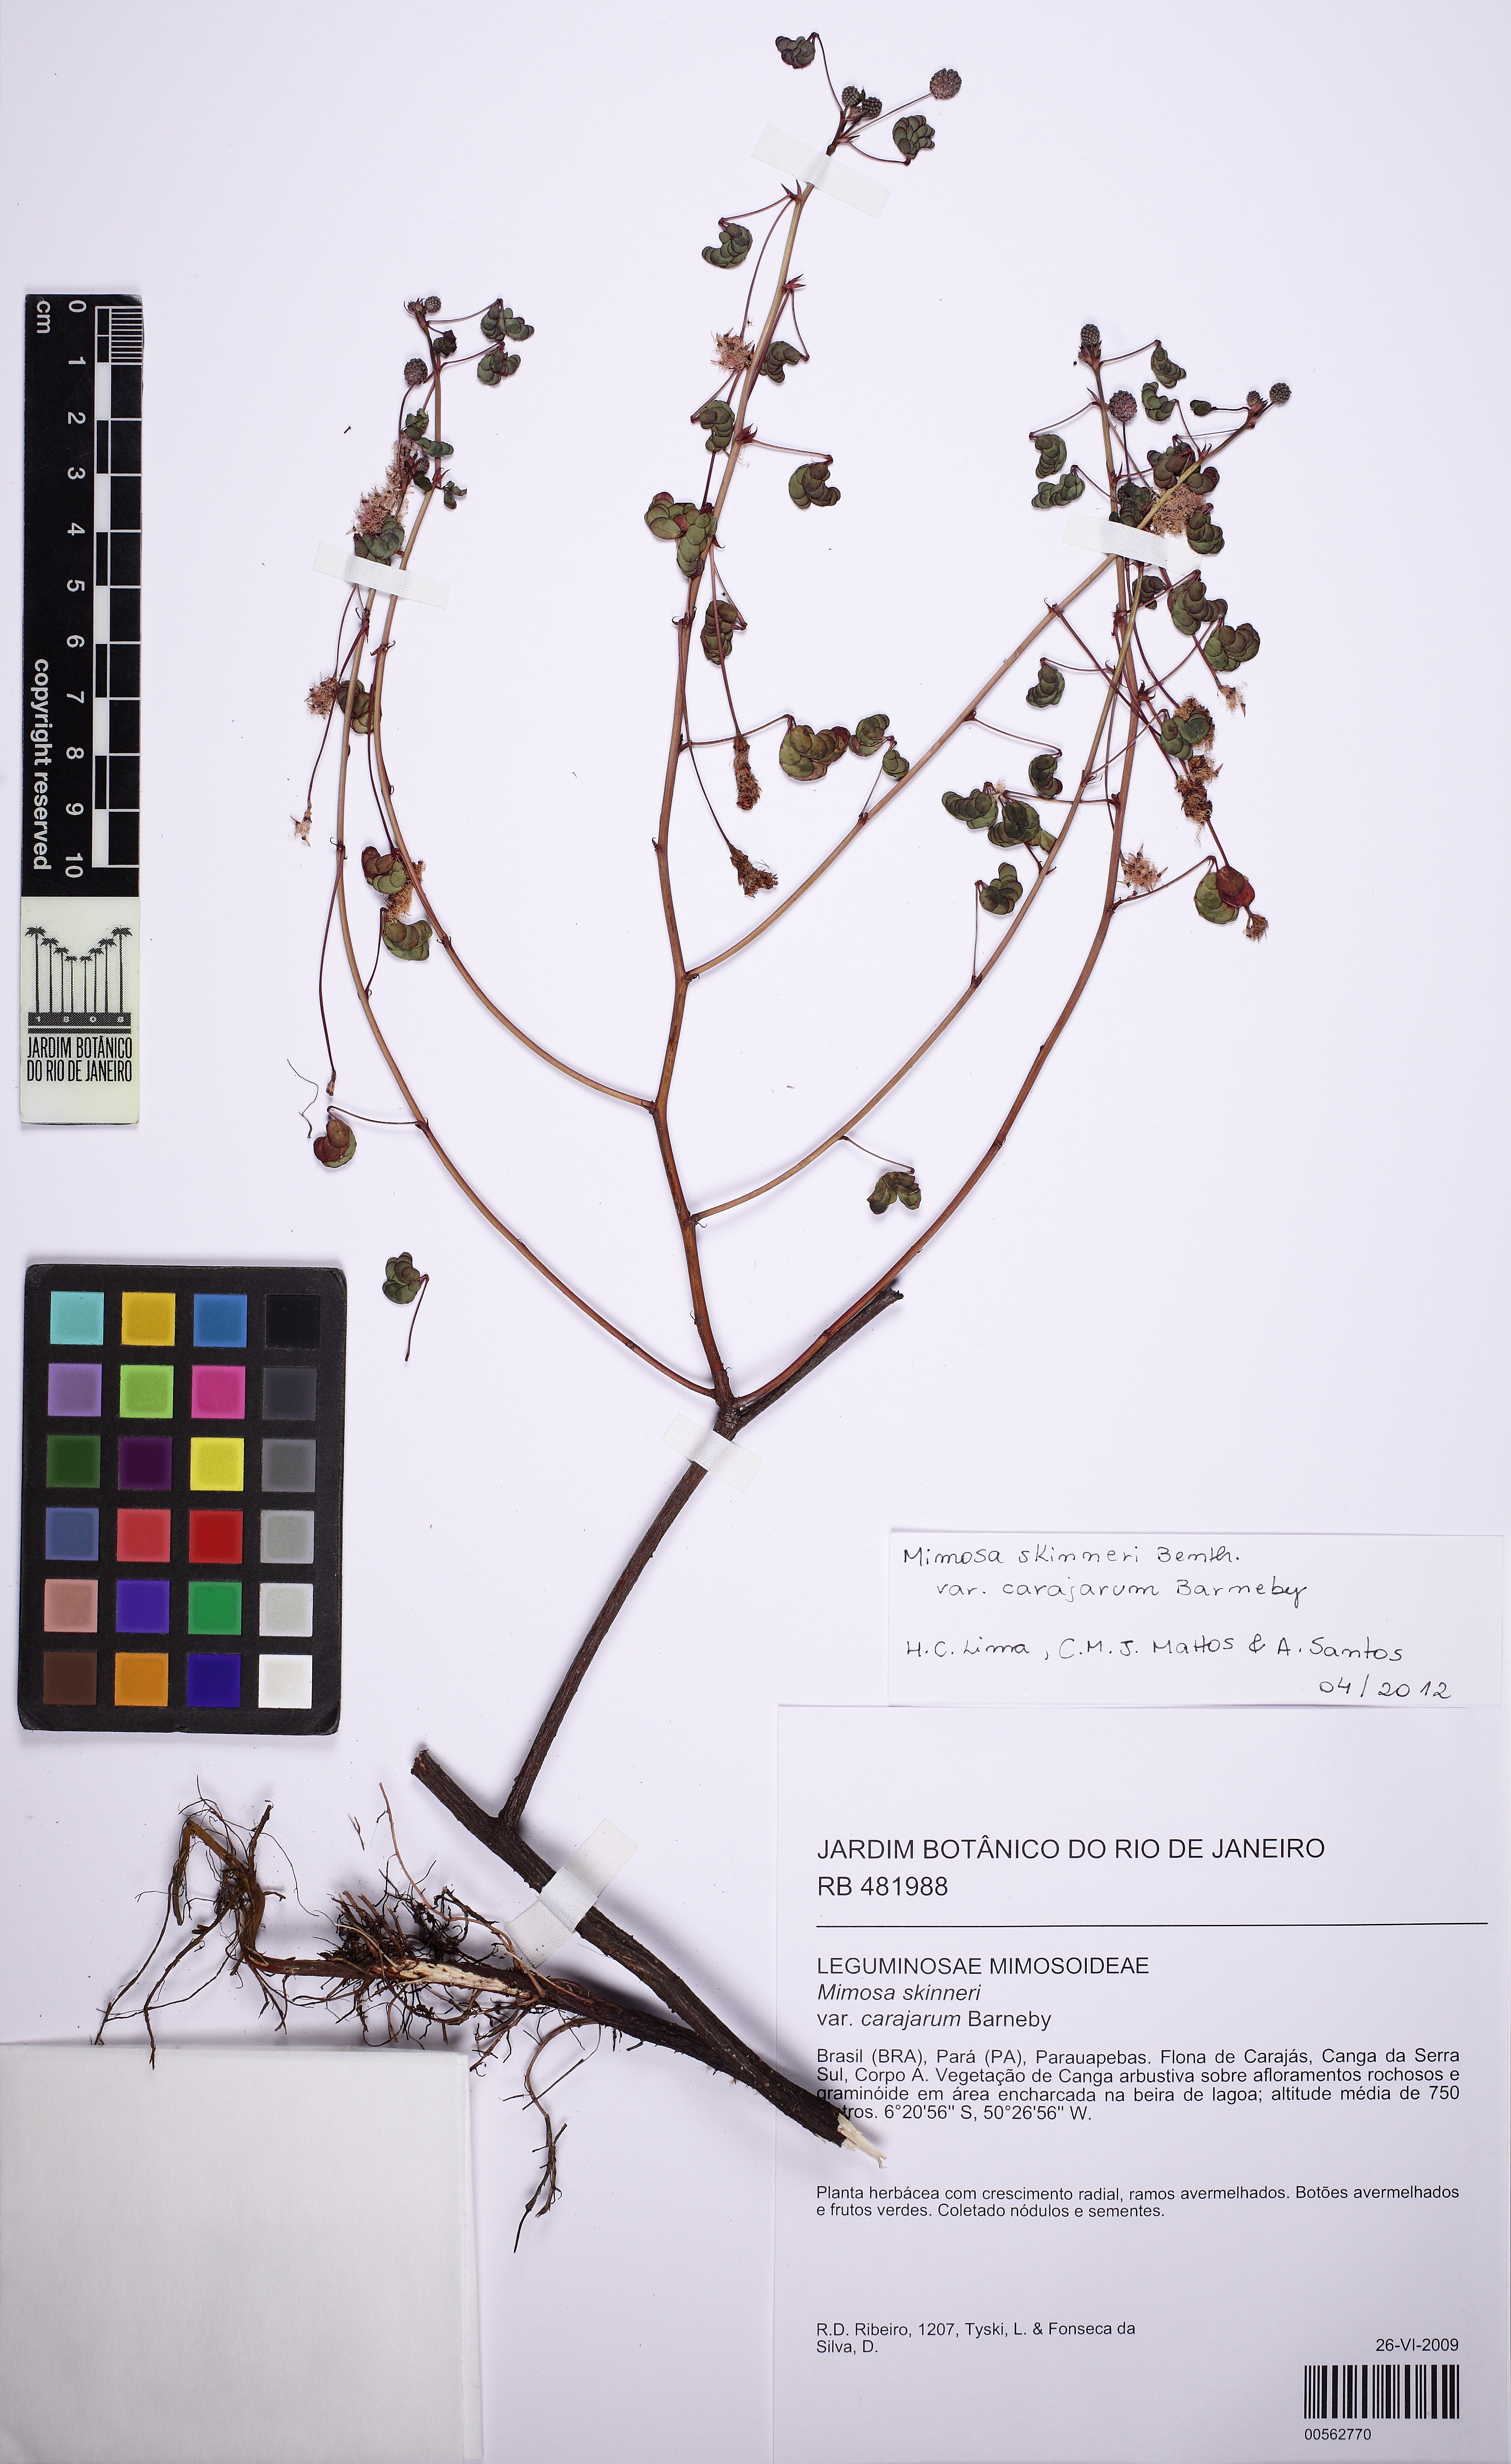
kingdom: Plantae
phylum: Tracheophyta
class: Magnoliopsida
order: Fabales
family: Fabaceae
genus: Mimosa
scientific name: Mimosa skinneri
